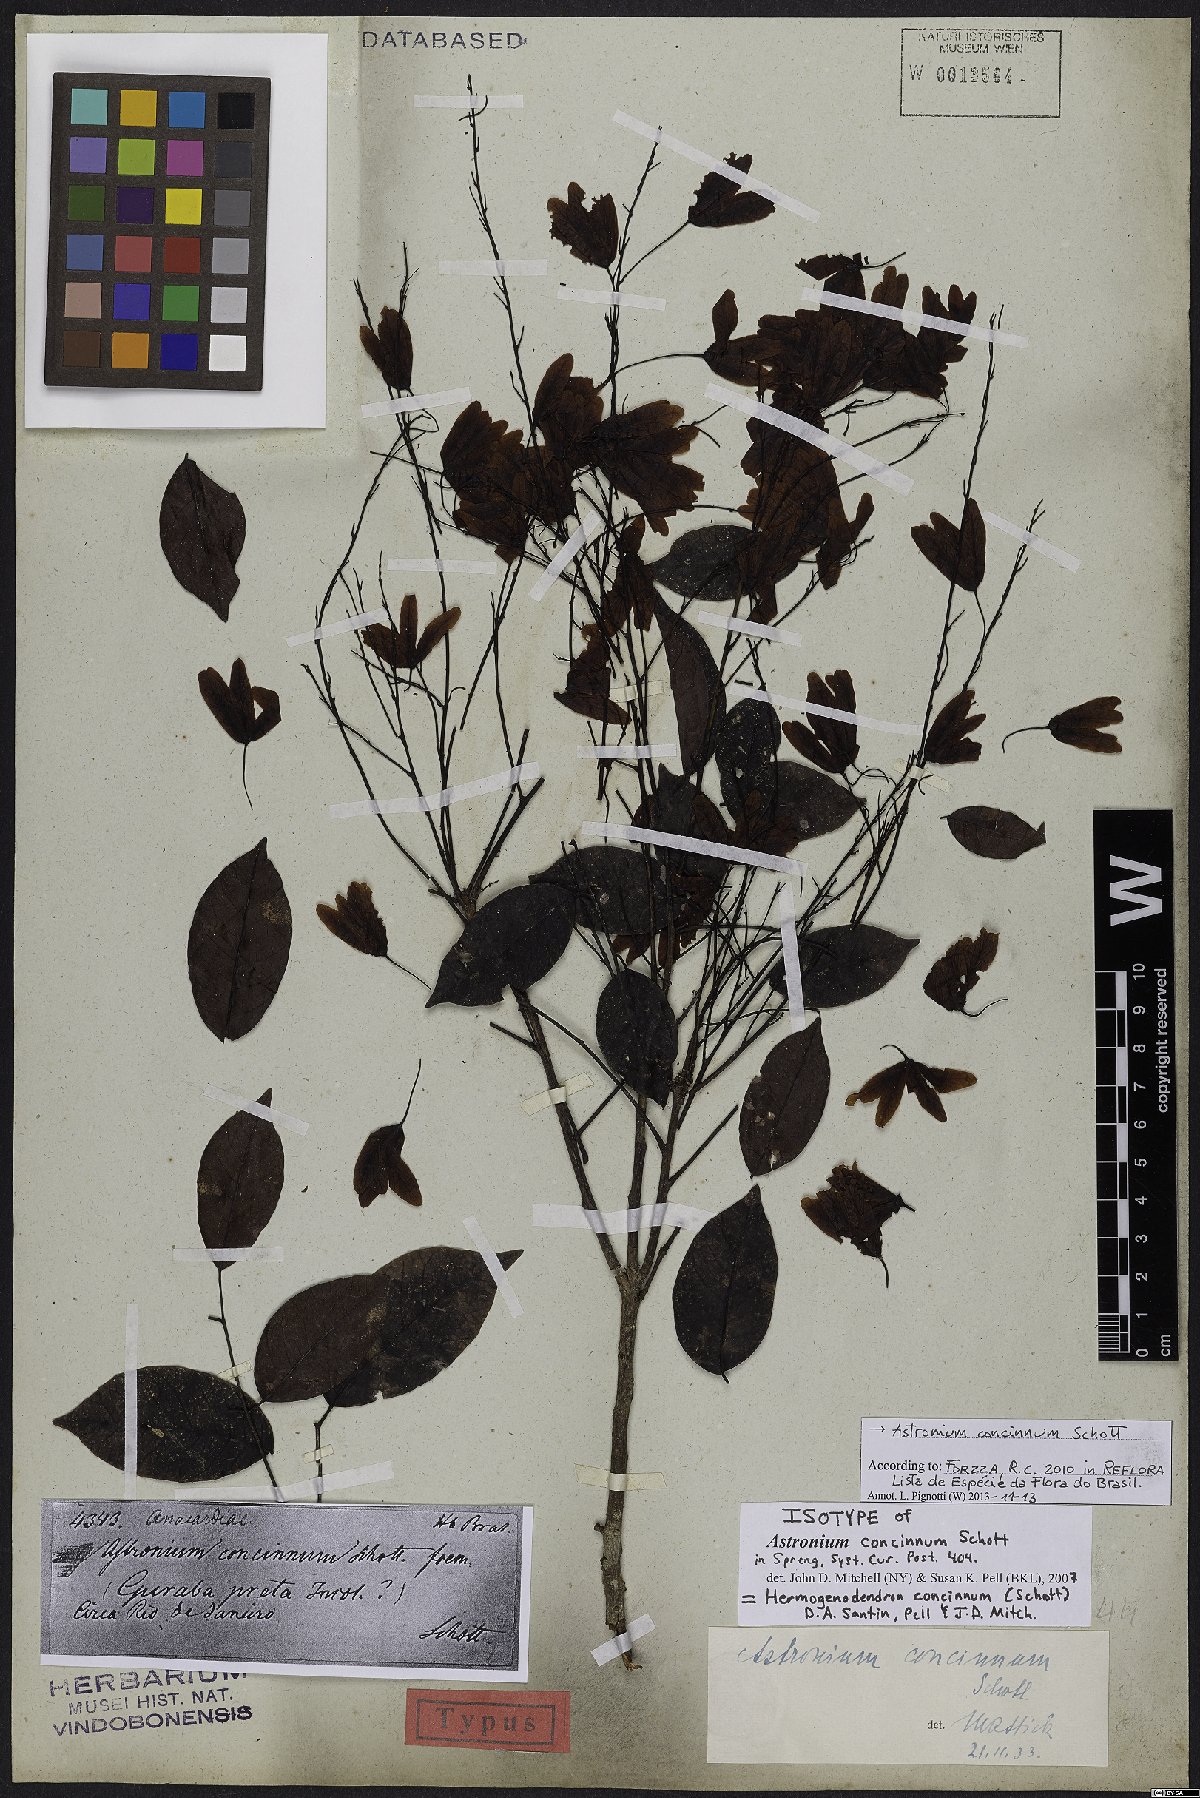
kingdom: Plantae
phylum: Tracheophyta
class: Magnoliopsida
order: Sapindales
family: Anacardiaceae
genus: Astronium
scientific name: Astronium concinnum
